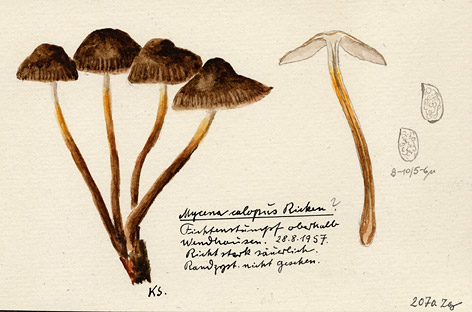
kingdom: Plantae
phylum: Tracheophyta
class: Pinopsida
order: Pinales
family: Pinaceae
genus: Picea
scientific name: Picea
